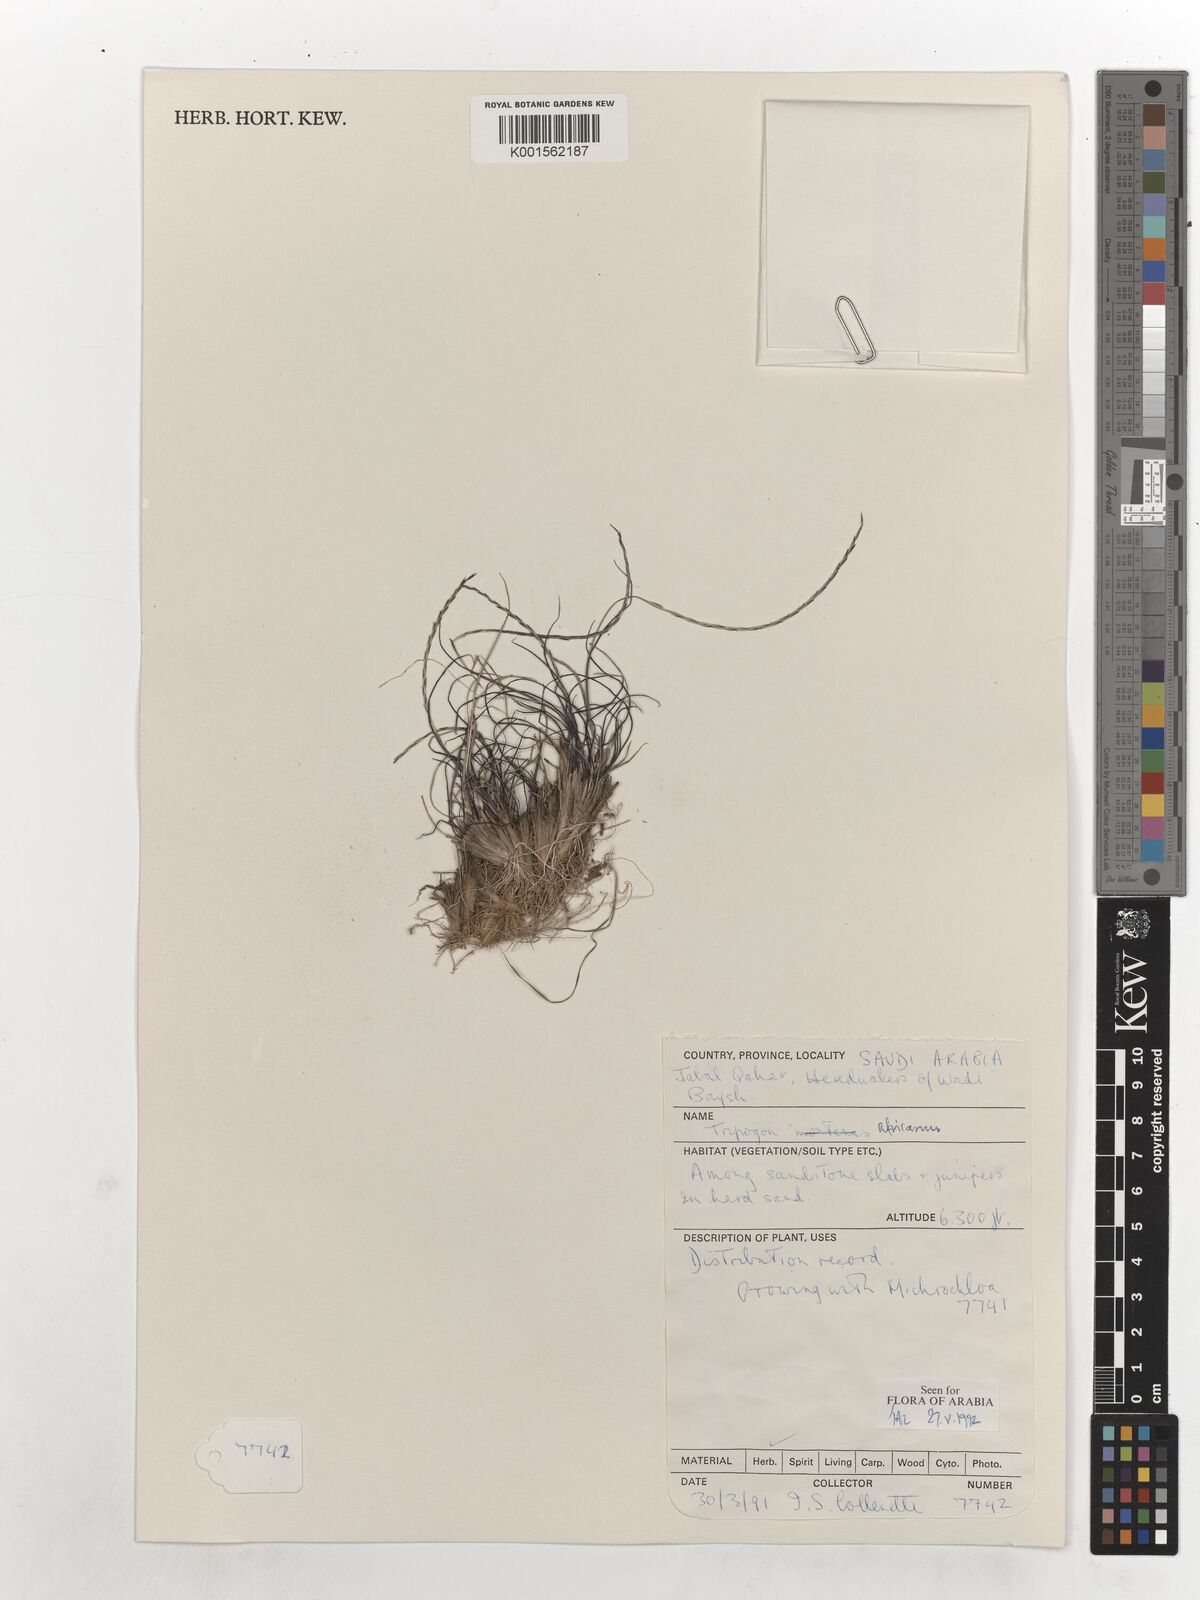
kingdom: Plantae
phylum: Tracheophyta
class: Liliopsida
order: Poales
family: Poaceae
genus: Tripogon
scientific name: Tripogon africanus
